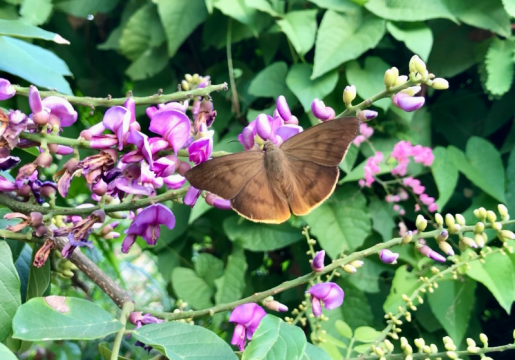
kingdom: Animalia
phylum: Arthropoda
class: Insecta
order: Lepidoptera
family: Hesperiidae
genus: Ocyba
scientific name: Ocyba calathana
